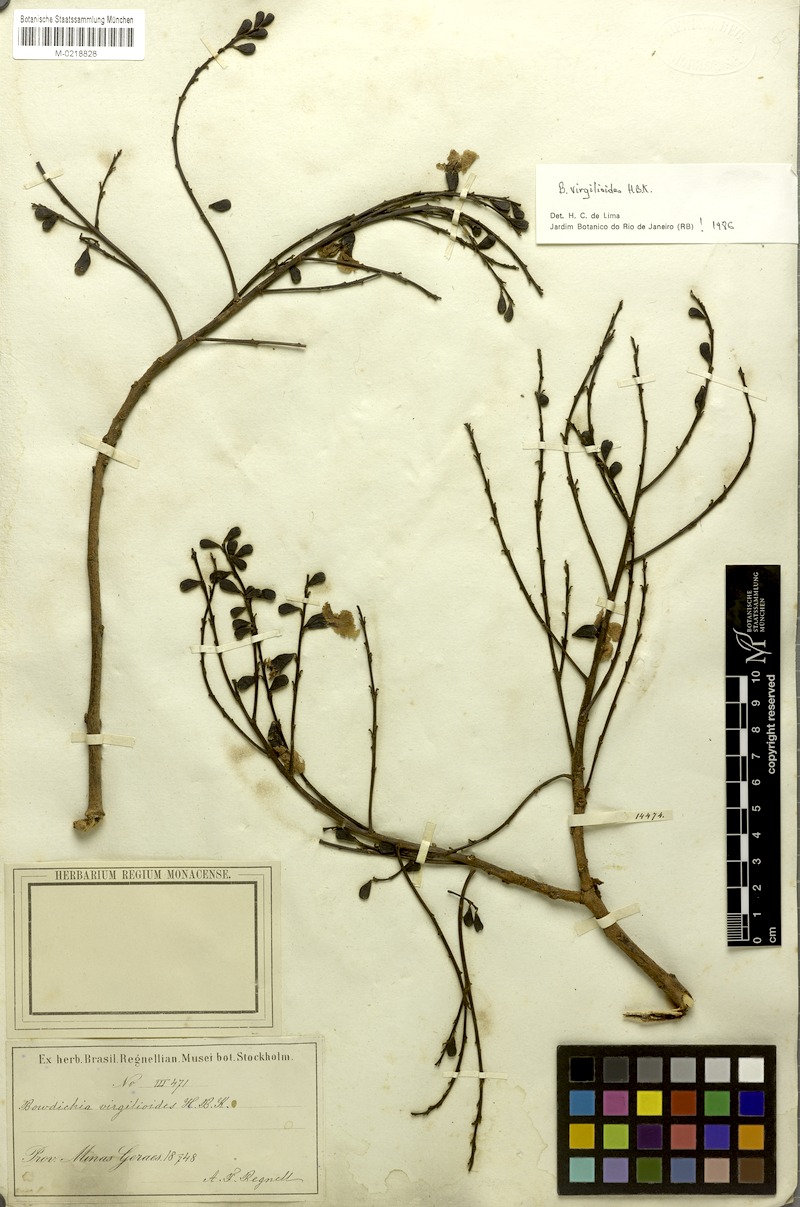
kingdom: Plantae
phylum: Tracheophyta
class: Magnoliopsida
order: Fabales
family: Fabaceae
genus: Bowdichia
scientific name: Bowdichia virgilioides
